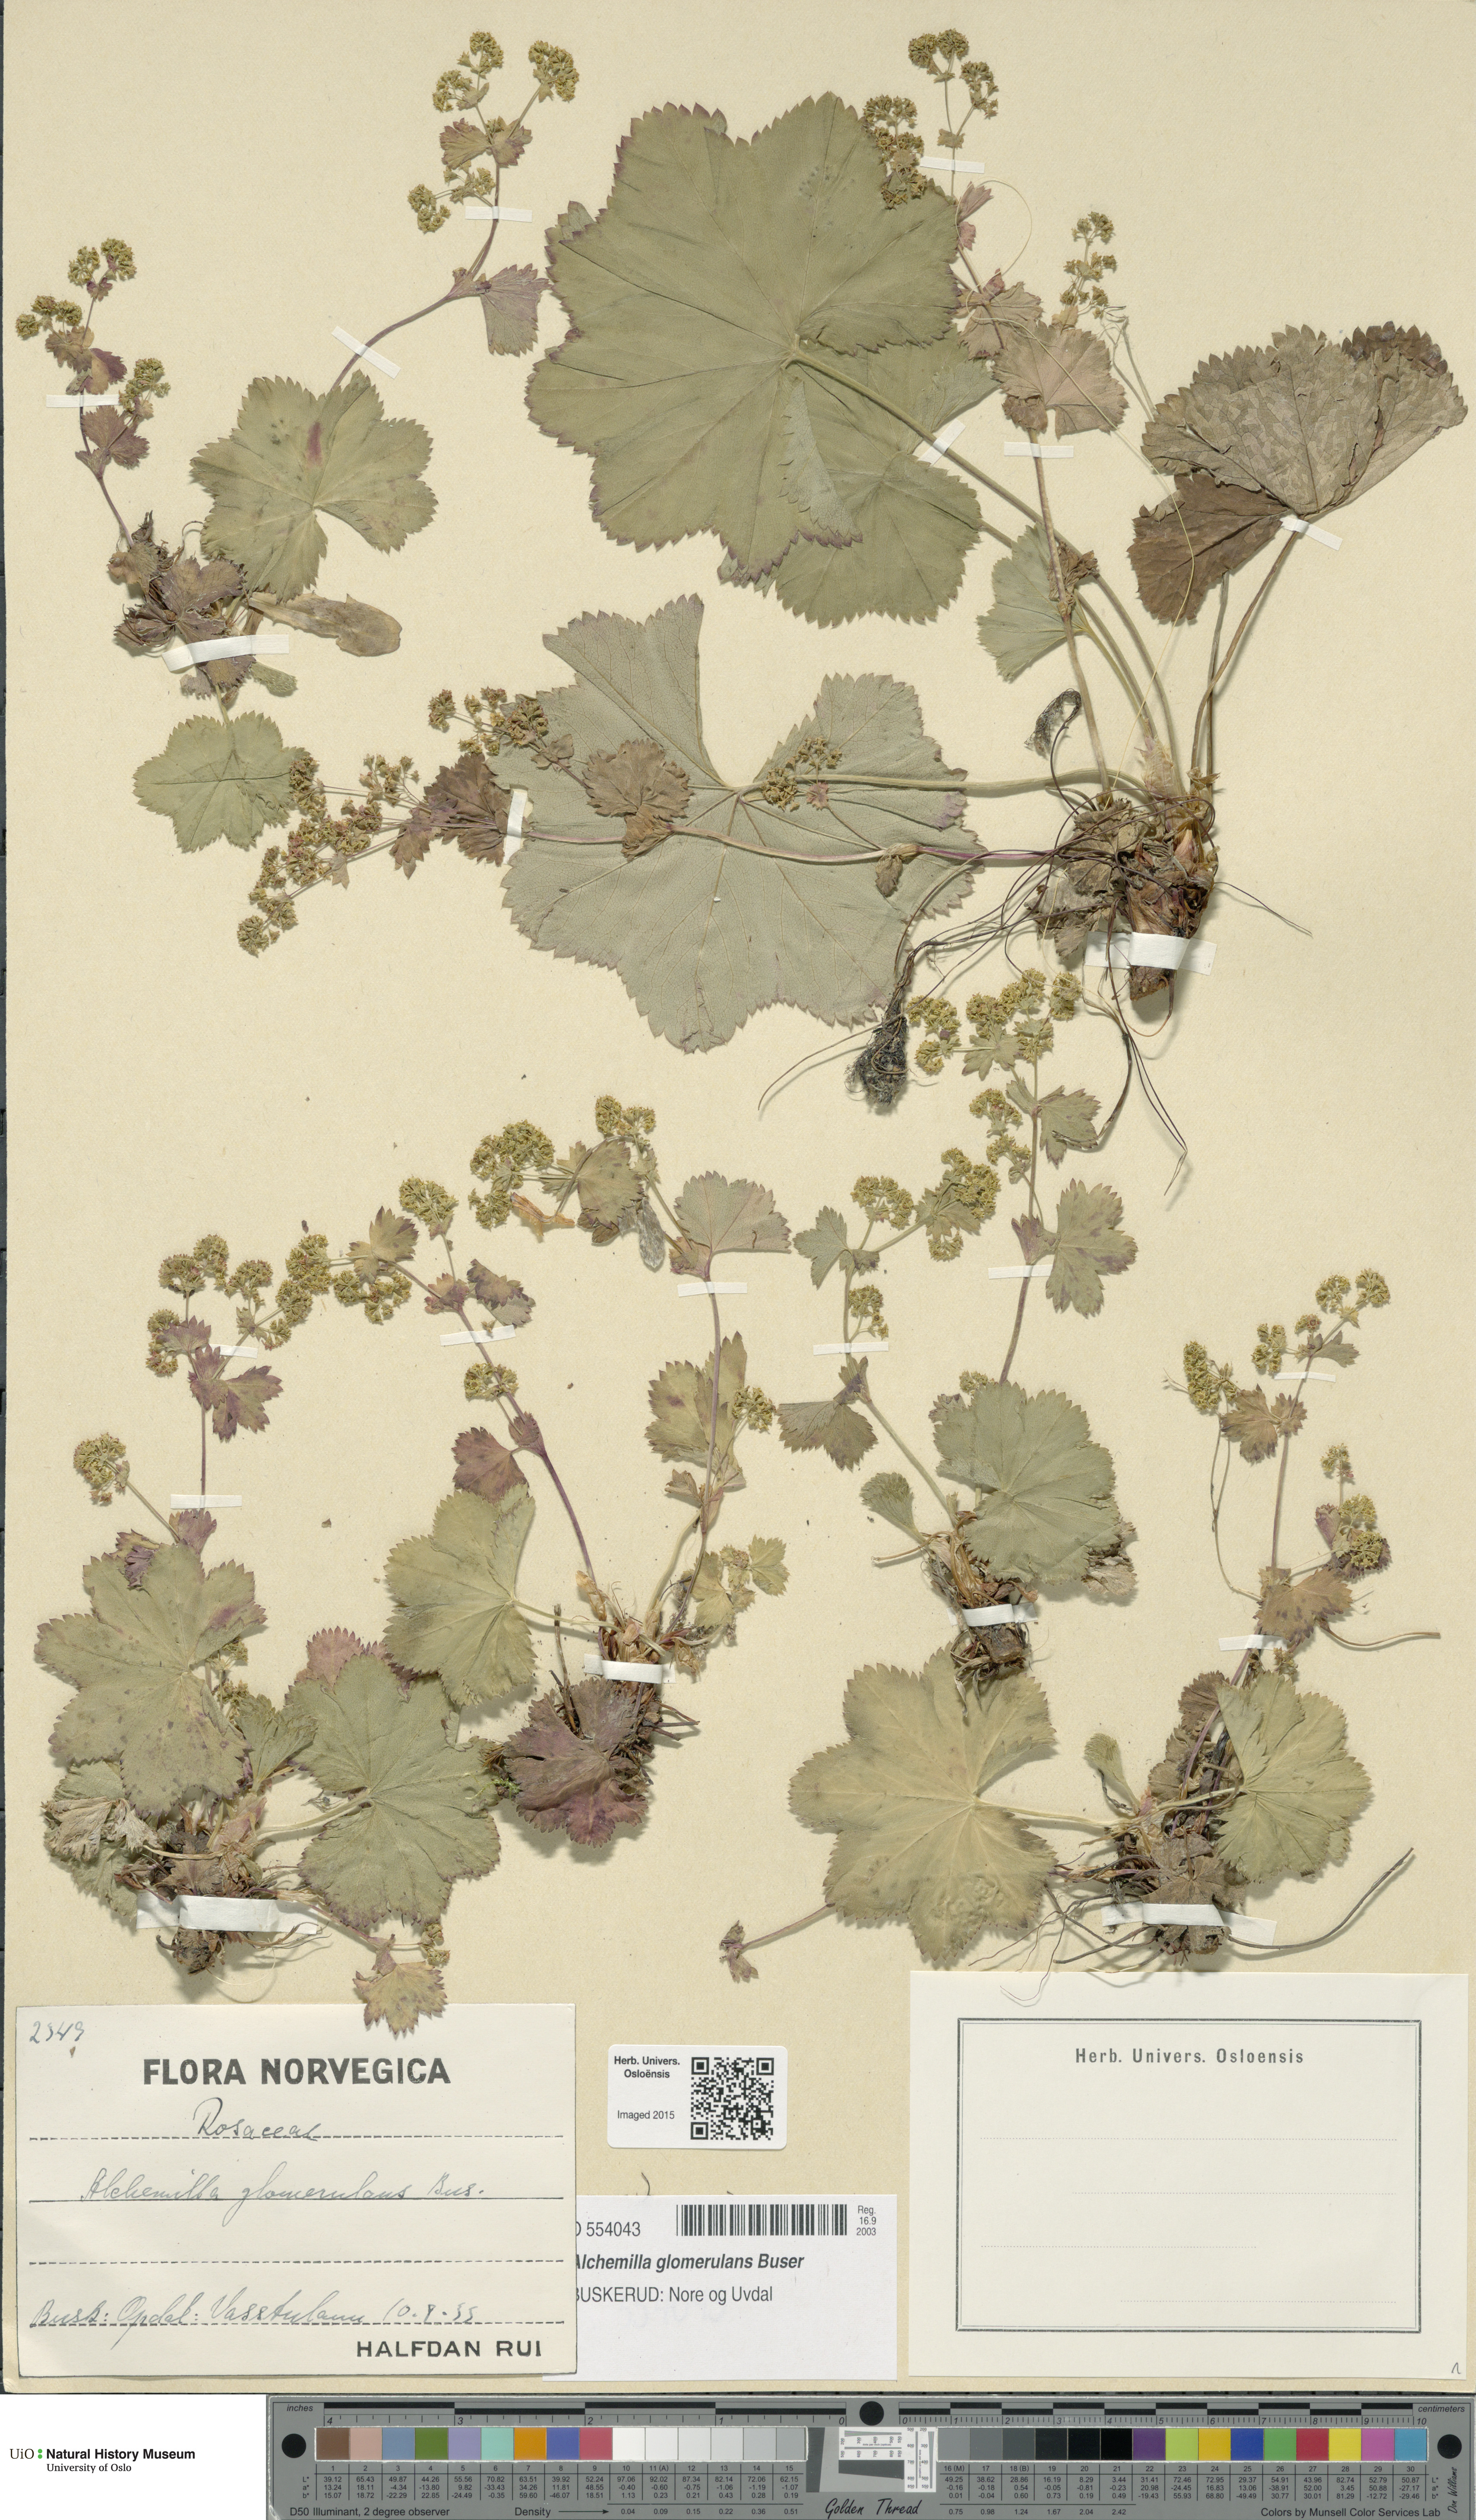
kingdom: Plantae
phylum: Tracheophyta
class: Magnoliopsida
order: Rosales
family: Rosaceae
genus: Alchemilla
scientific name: Alchemilla glomerulans
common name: Clustered lady's mantle
